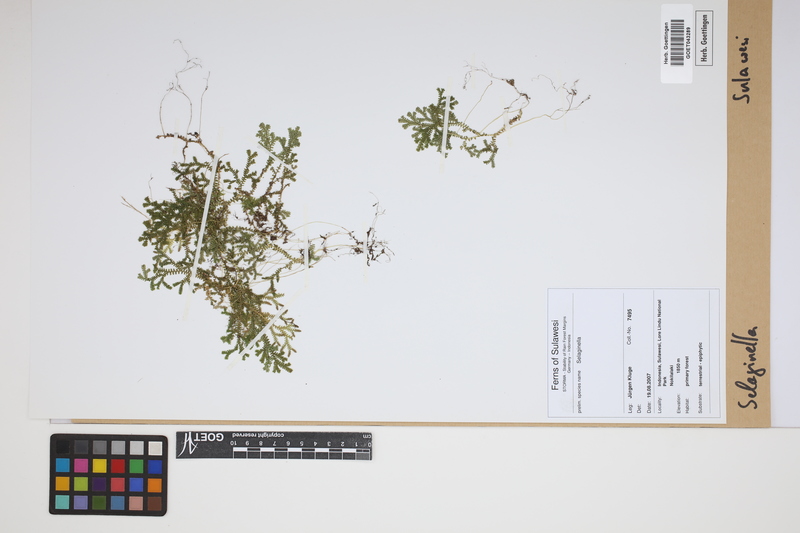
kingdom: Plantae
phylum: Tracheophyta
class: Lycopodiopsida
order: Selaginellales
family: Selaginellaceae
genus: Selaginella
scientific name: Selaginella
